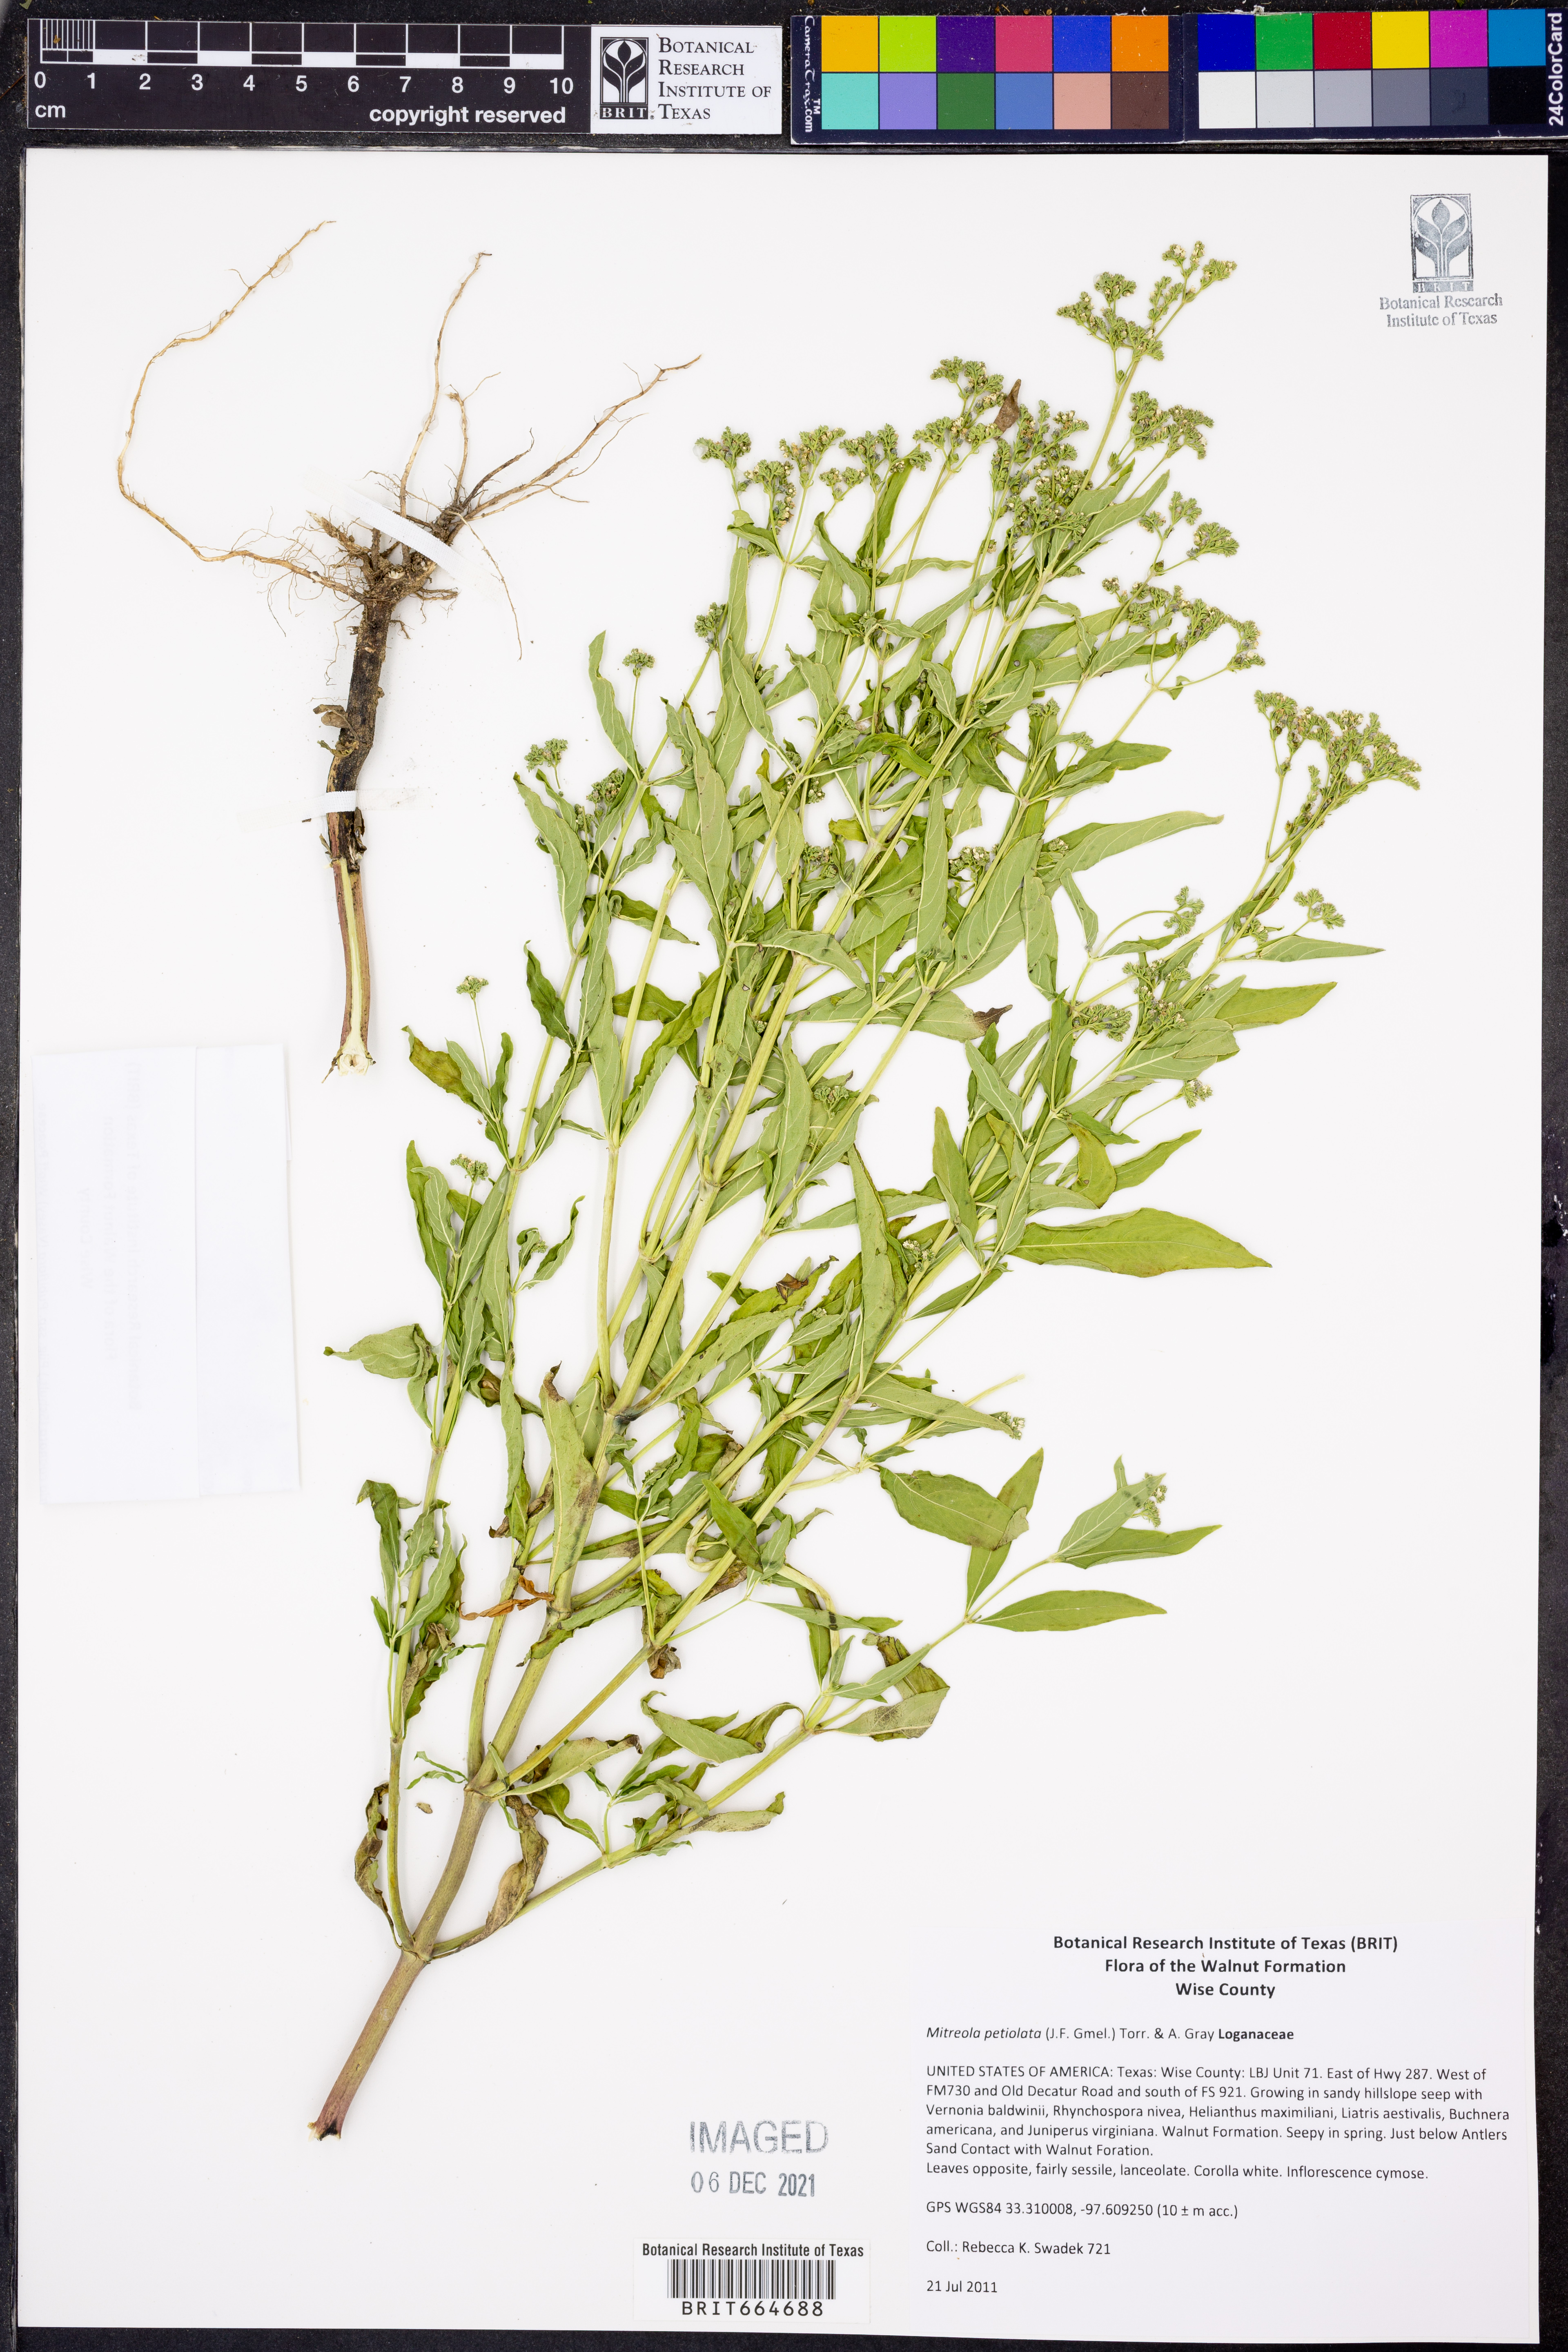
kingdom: Plantae
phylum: Tracheophyta
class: Magnoliopsida
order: Gentianales
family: Loganiaceae
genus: Mitreola
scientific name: Mitreola petiolata
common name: Lax hornpod
